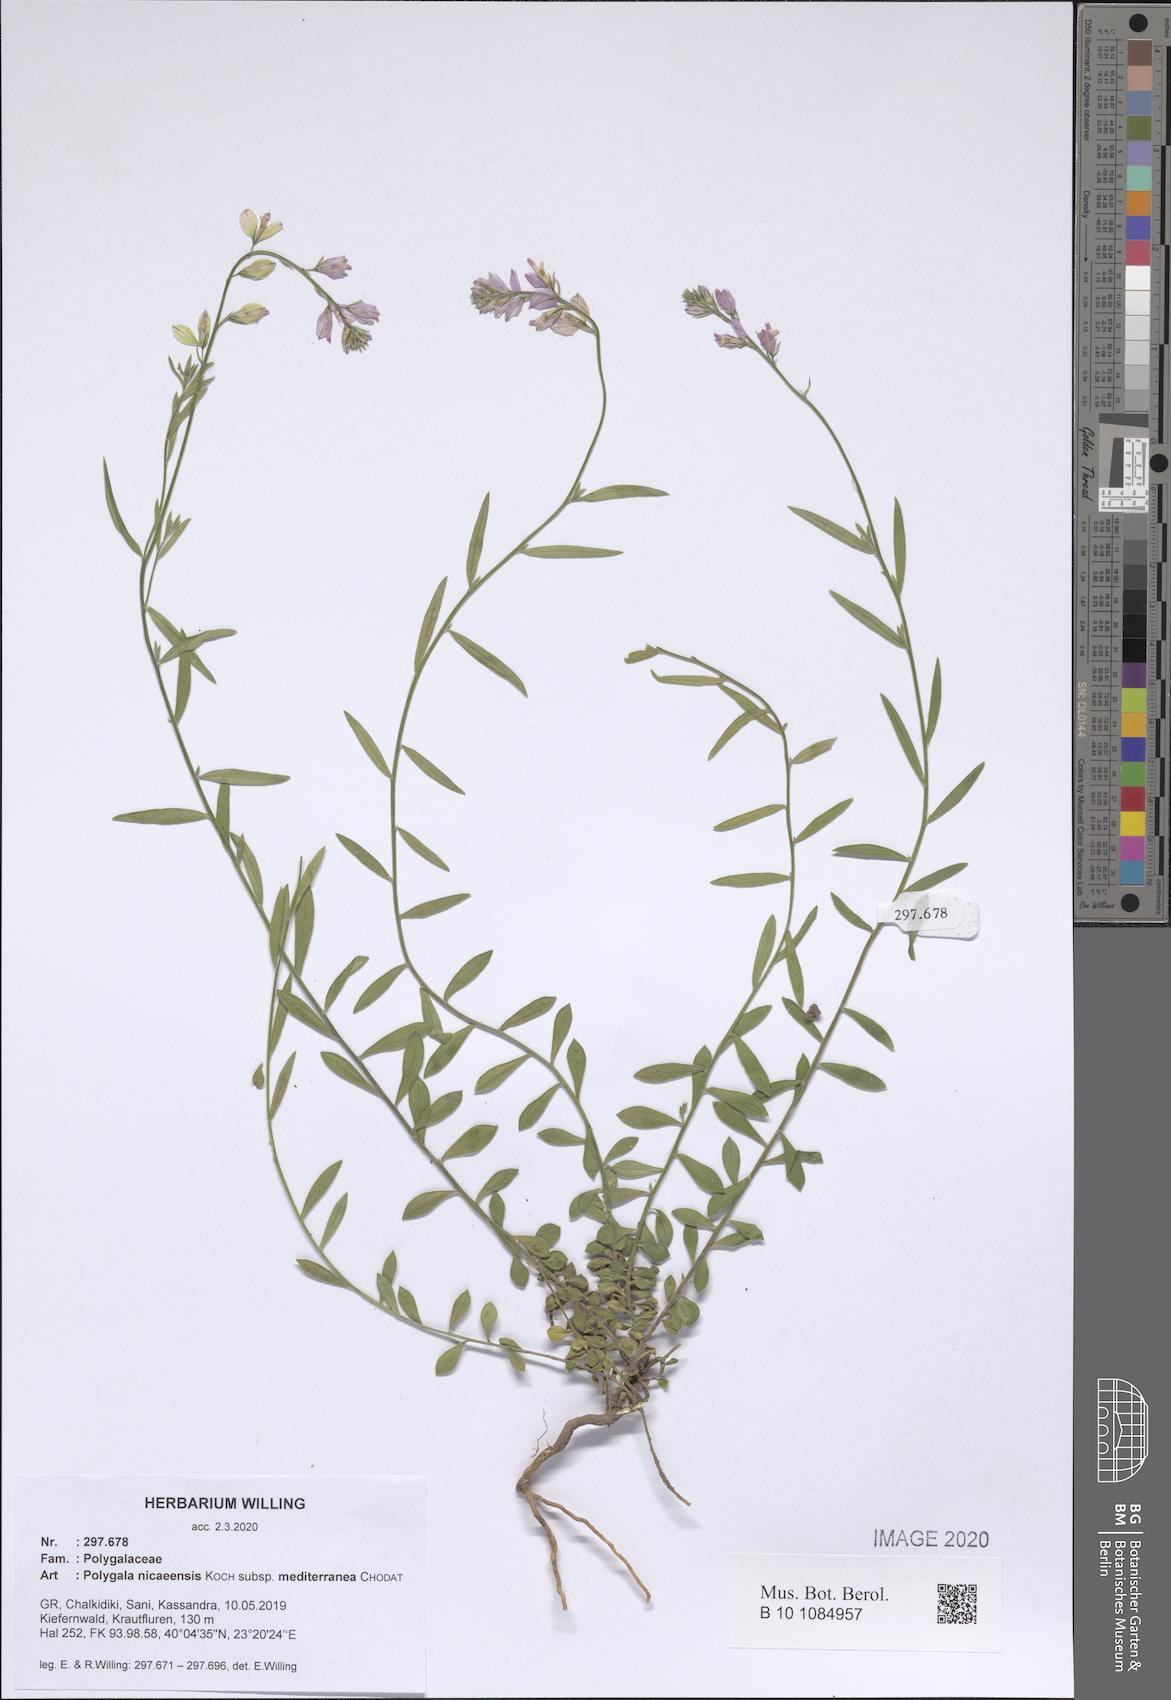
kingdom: Plantae
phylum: Tracheophyta
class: Magnoliopsida
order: Fabales
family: Polygalaceae
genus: Polygala
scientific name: Polygala nicaeensis
